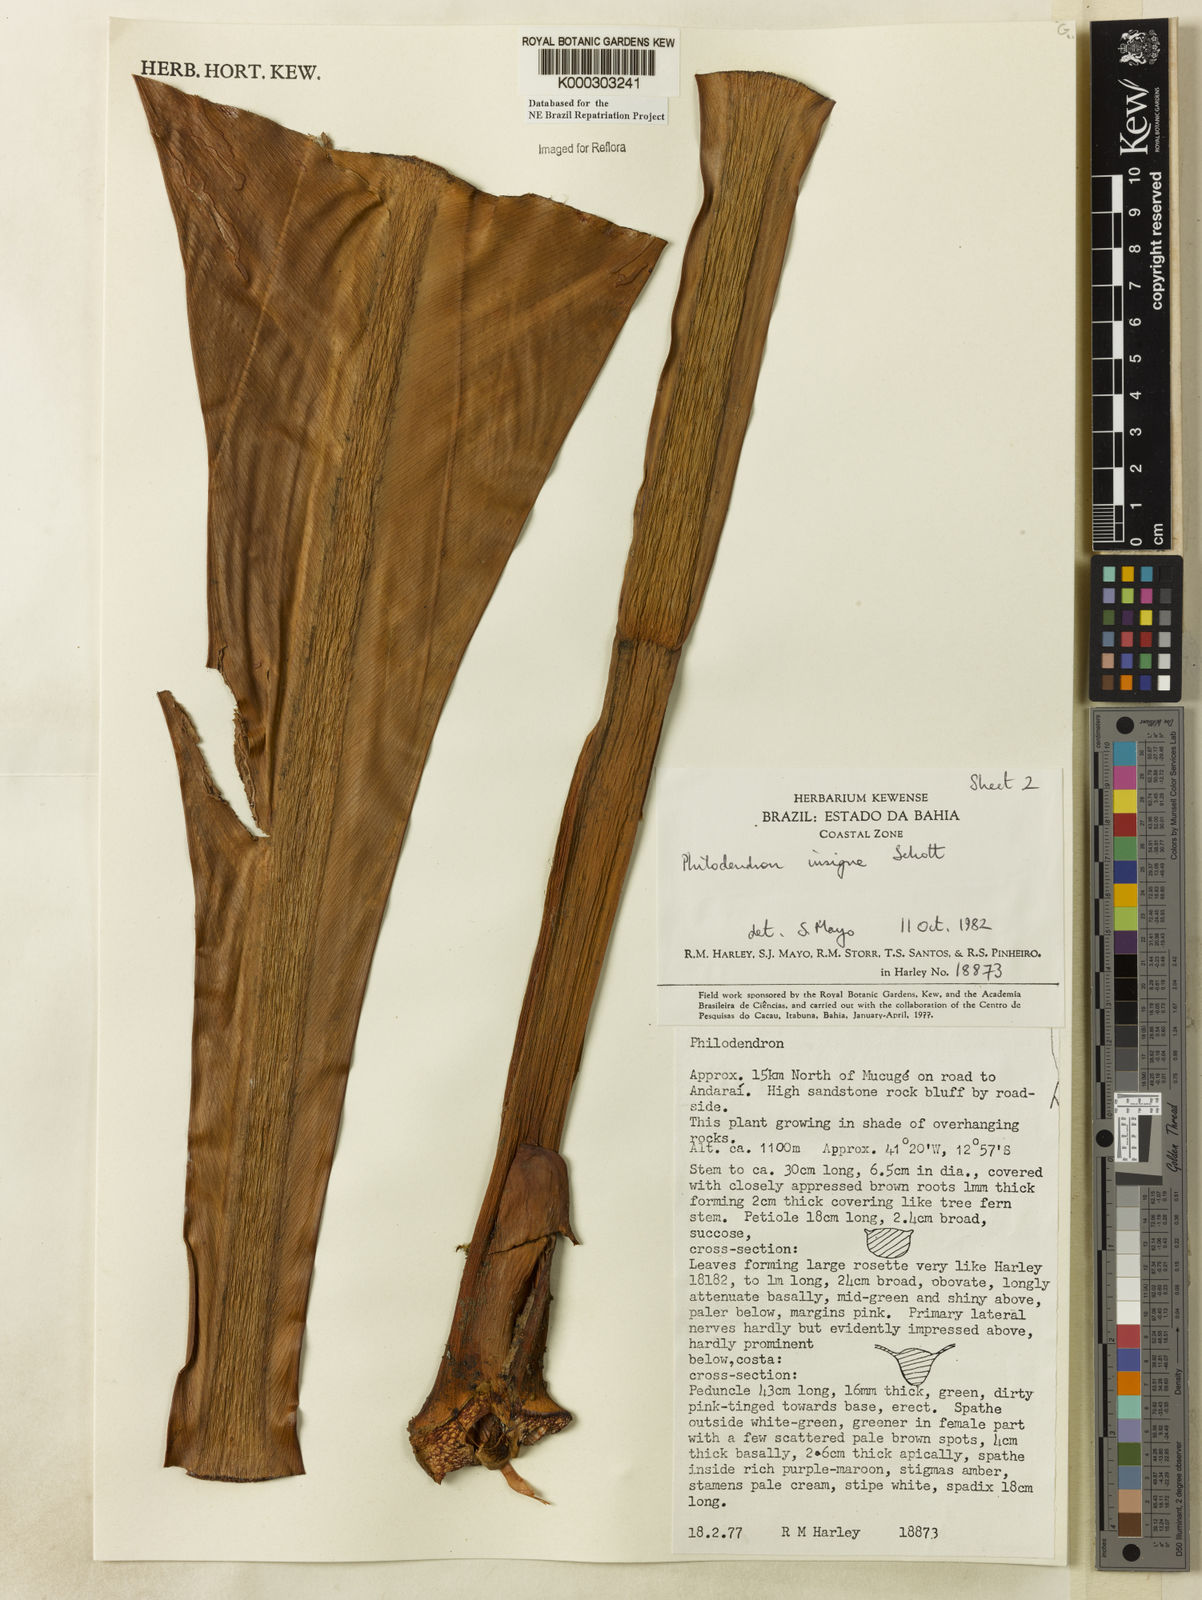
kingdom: Plantae
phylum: Tracheophyta
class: Liliopsida
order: Alismatales
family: Araceae
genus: Philodendron
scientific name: Philodendron insigne
